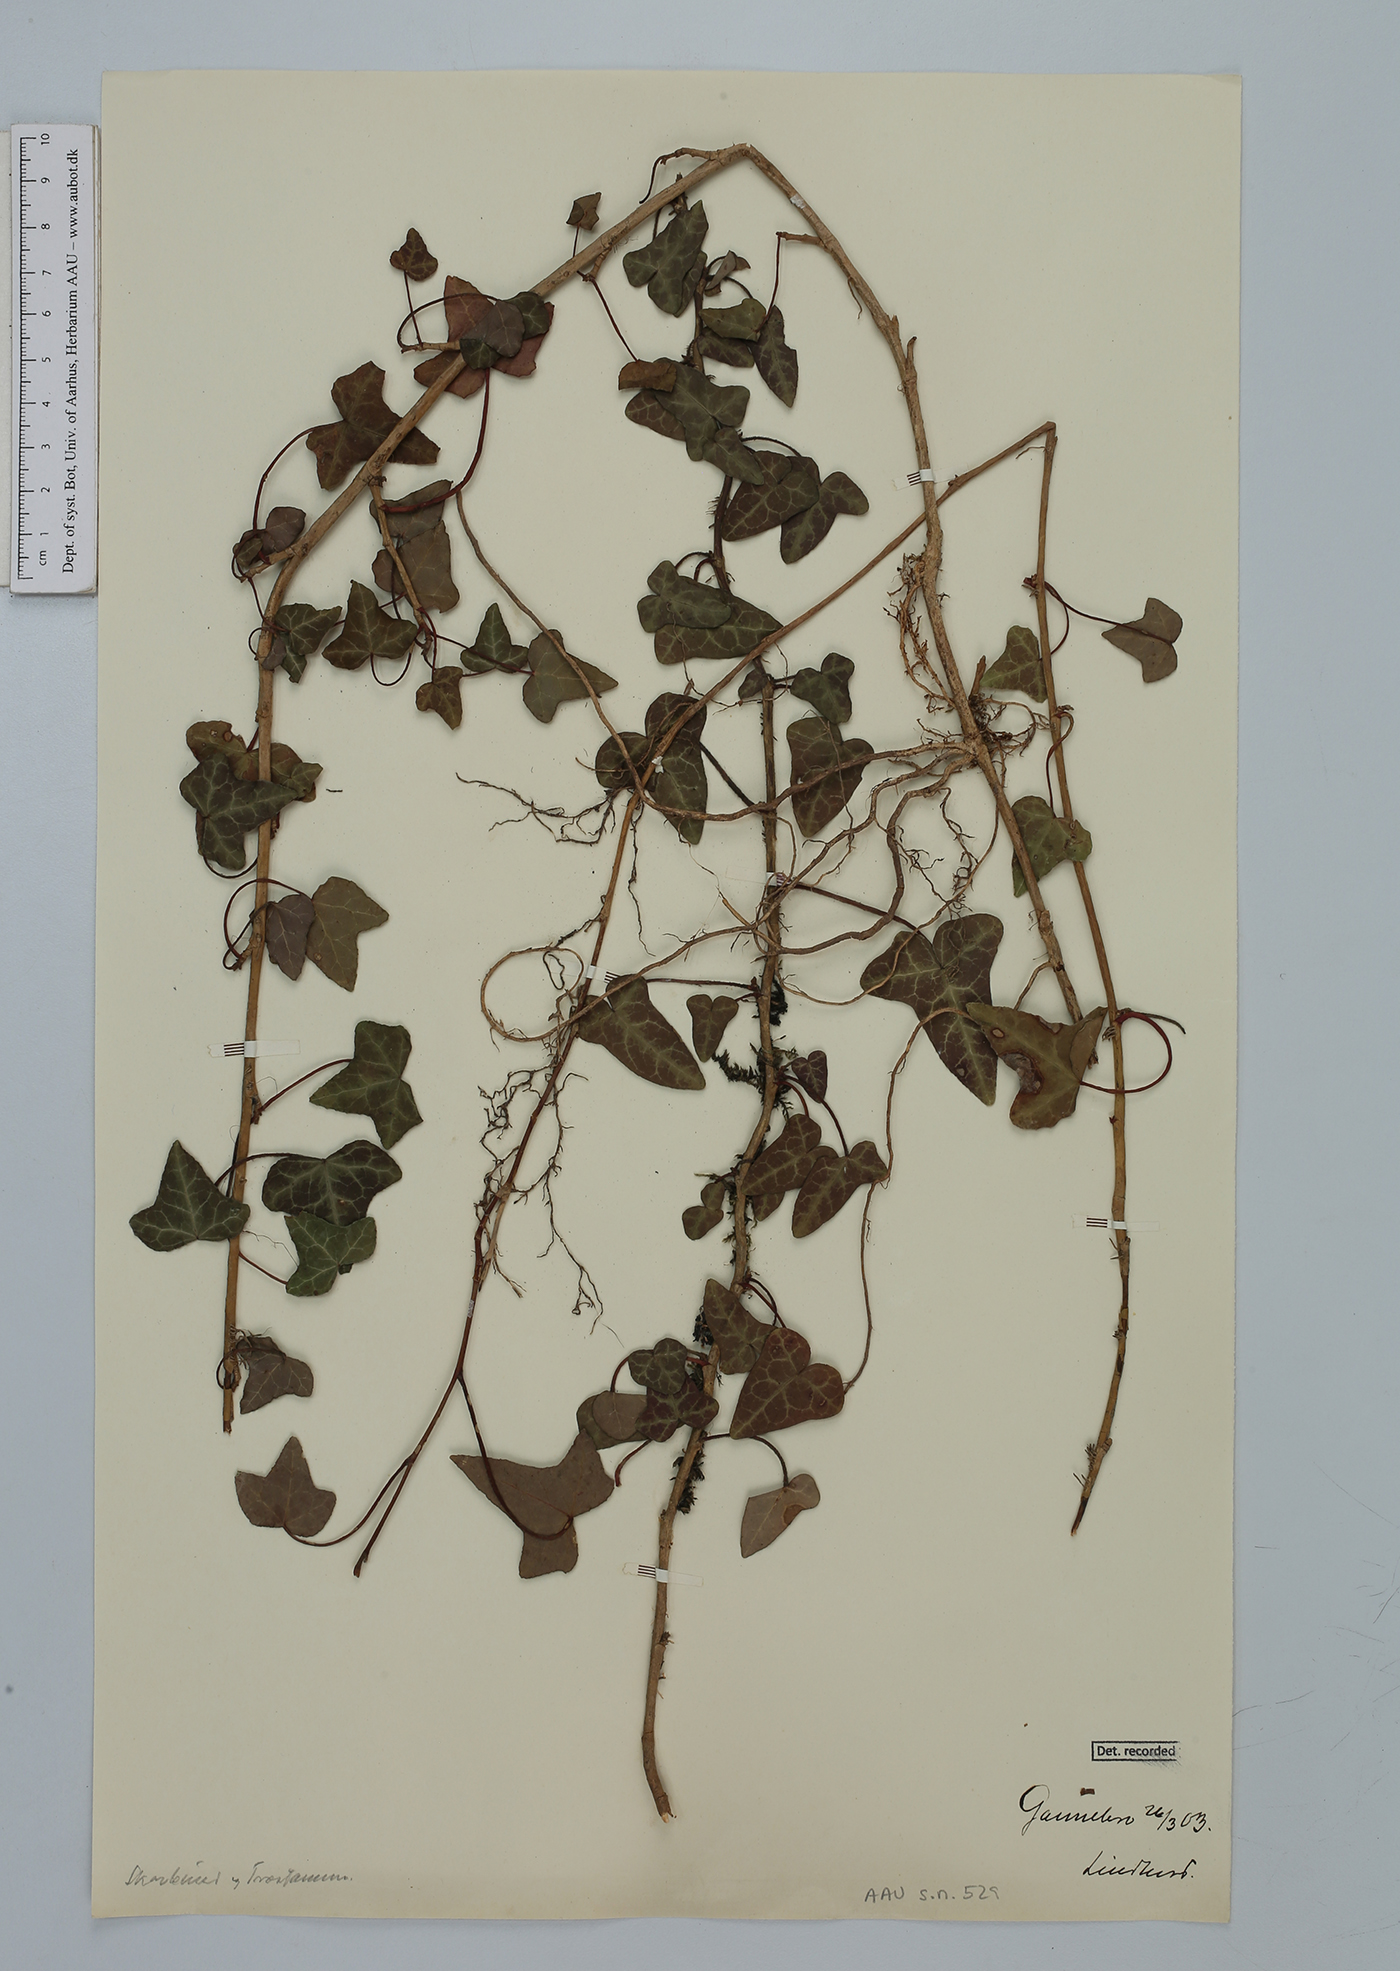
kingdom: Plantae
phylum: Tracheophyta
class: Magnoliopsida
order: Apiales
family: Araliaceae
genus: Hedera
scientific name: Hedera helix
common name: Ivy
